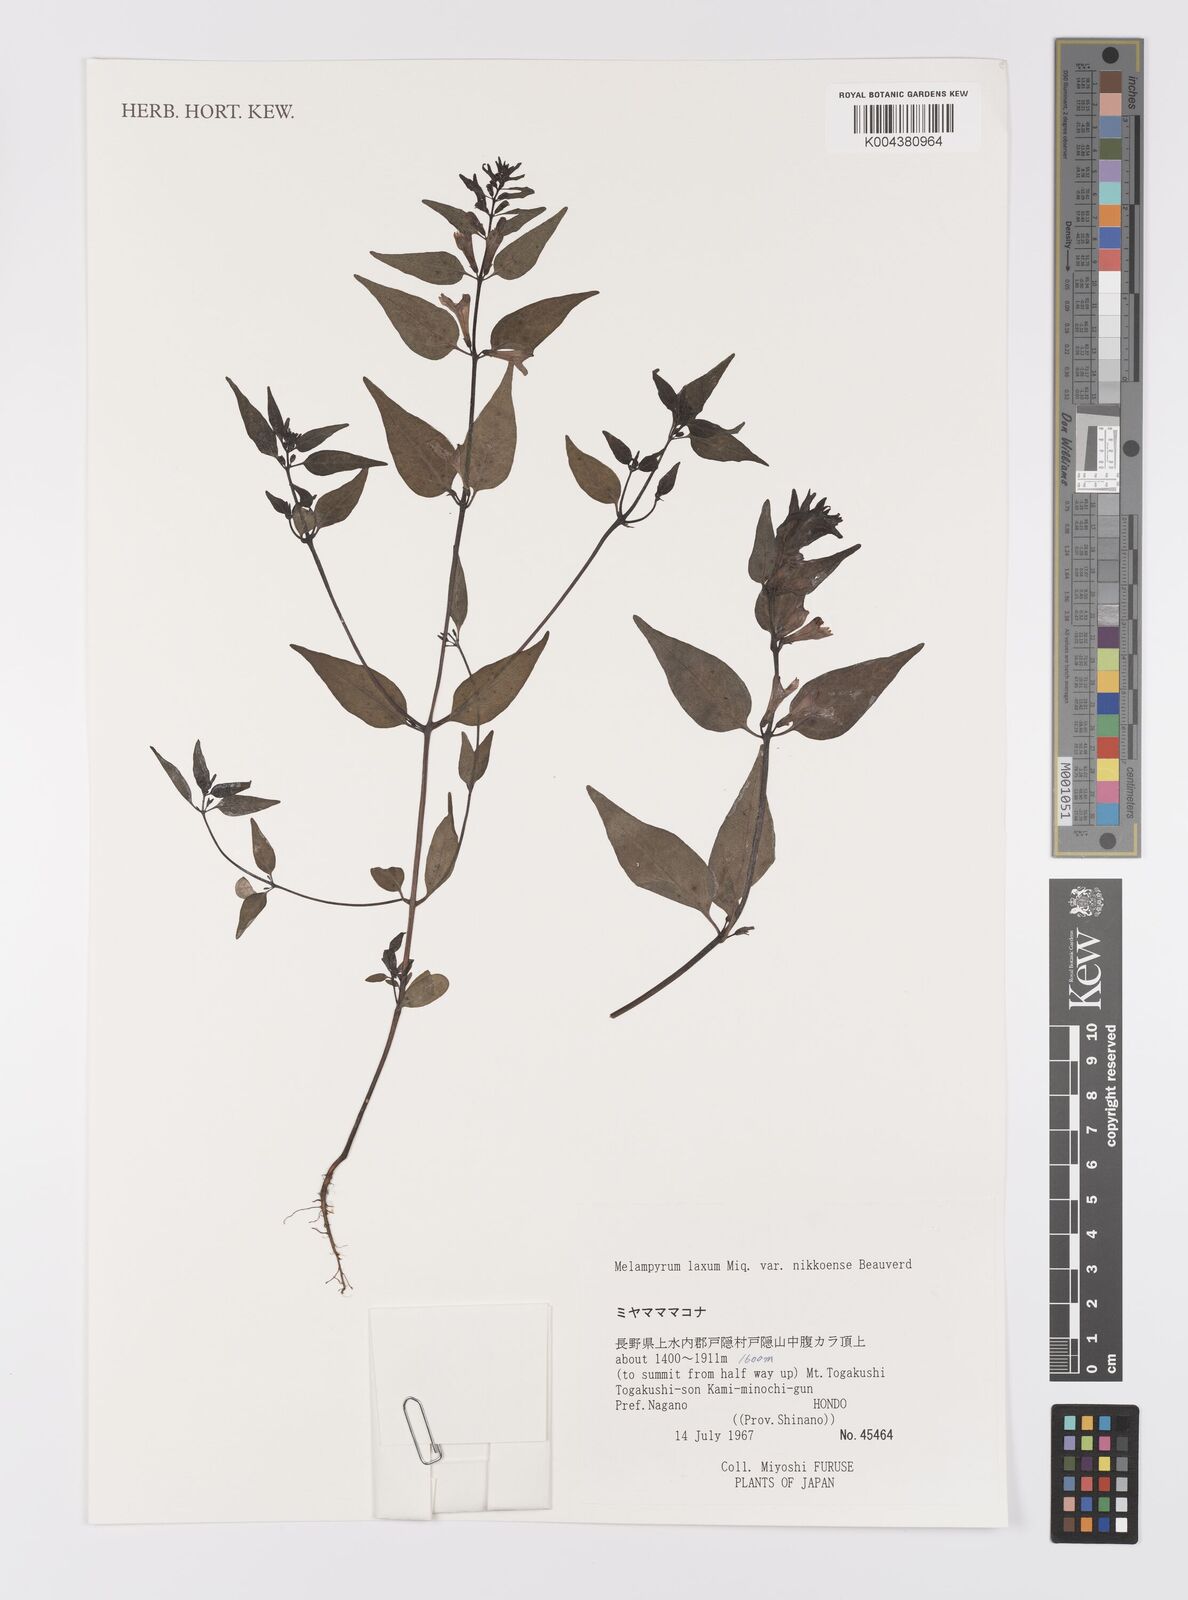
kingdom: Plantae
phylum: Tracheophyta
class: Magnoliopsida
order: Lamiales
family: Orobanchaceae
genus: Melampyrum
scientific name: Melampyrum laxum
